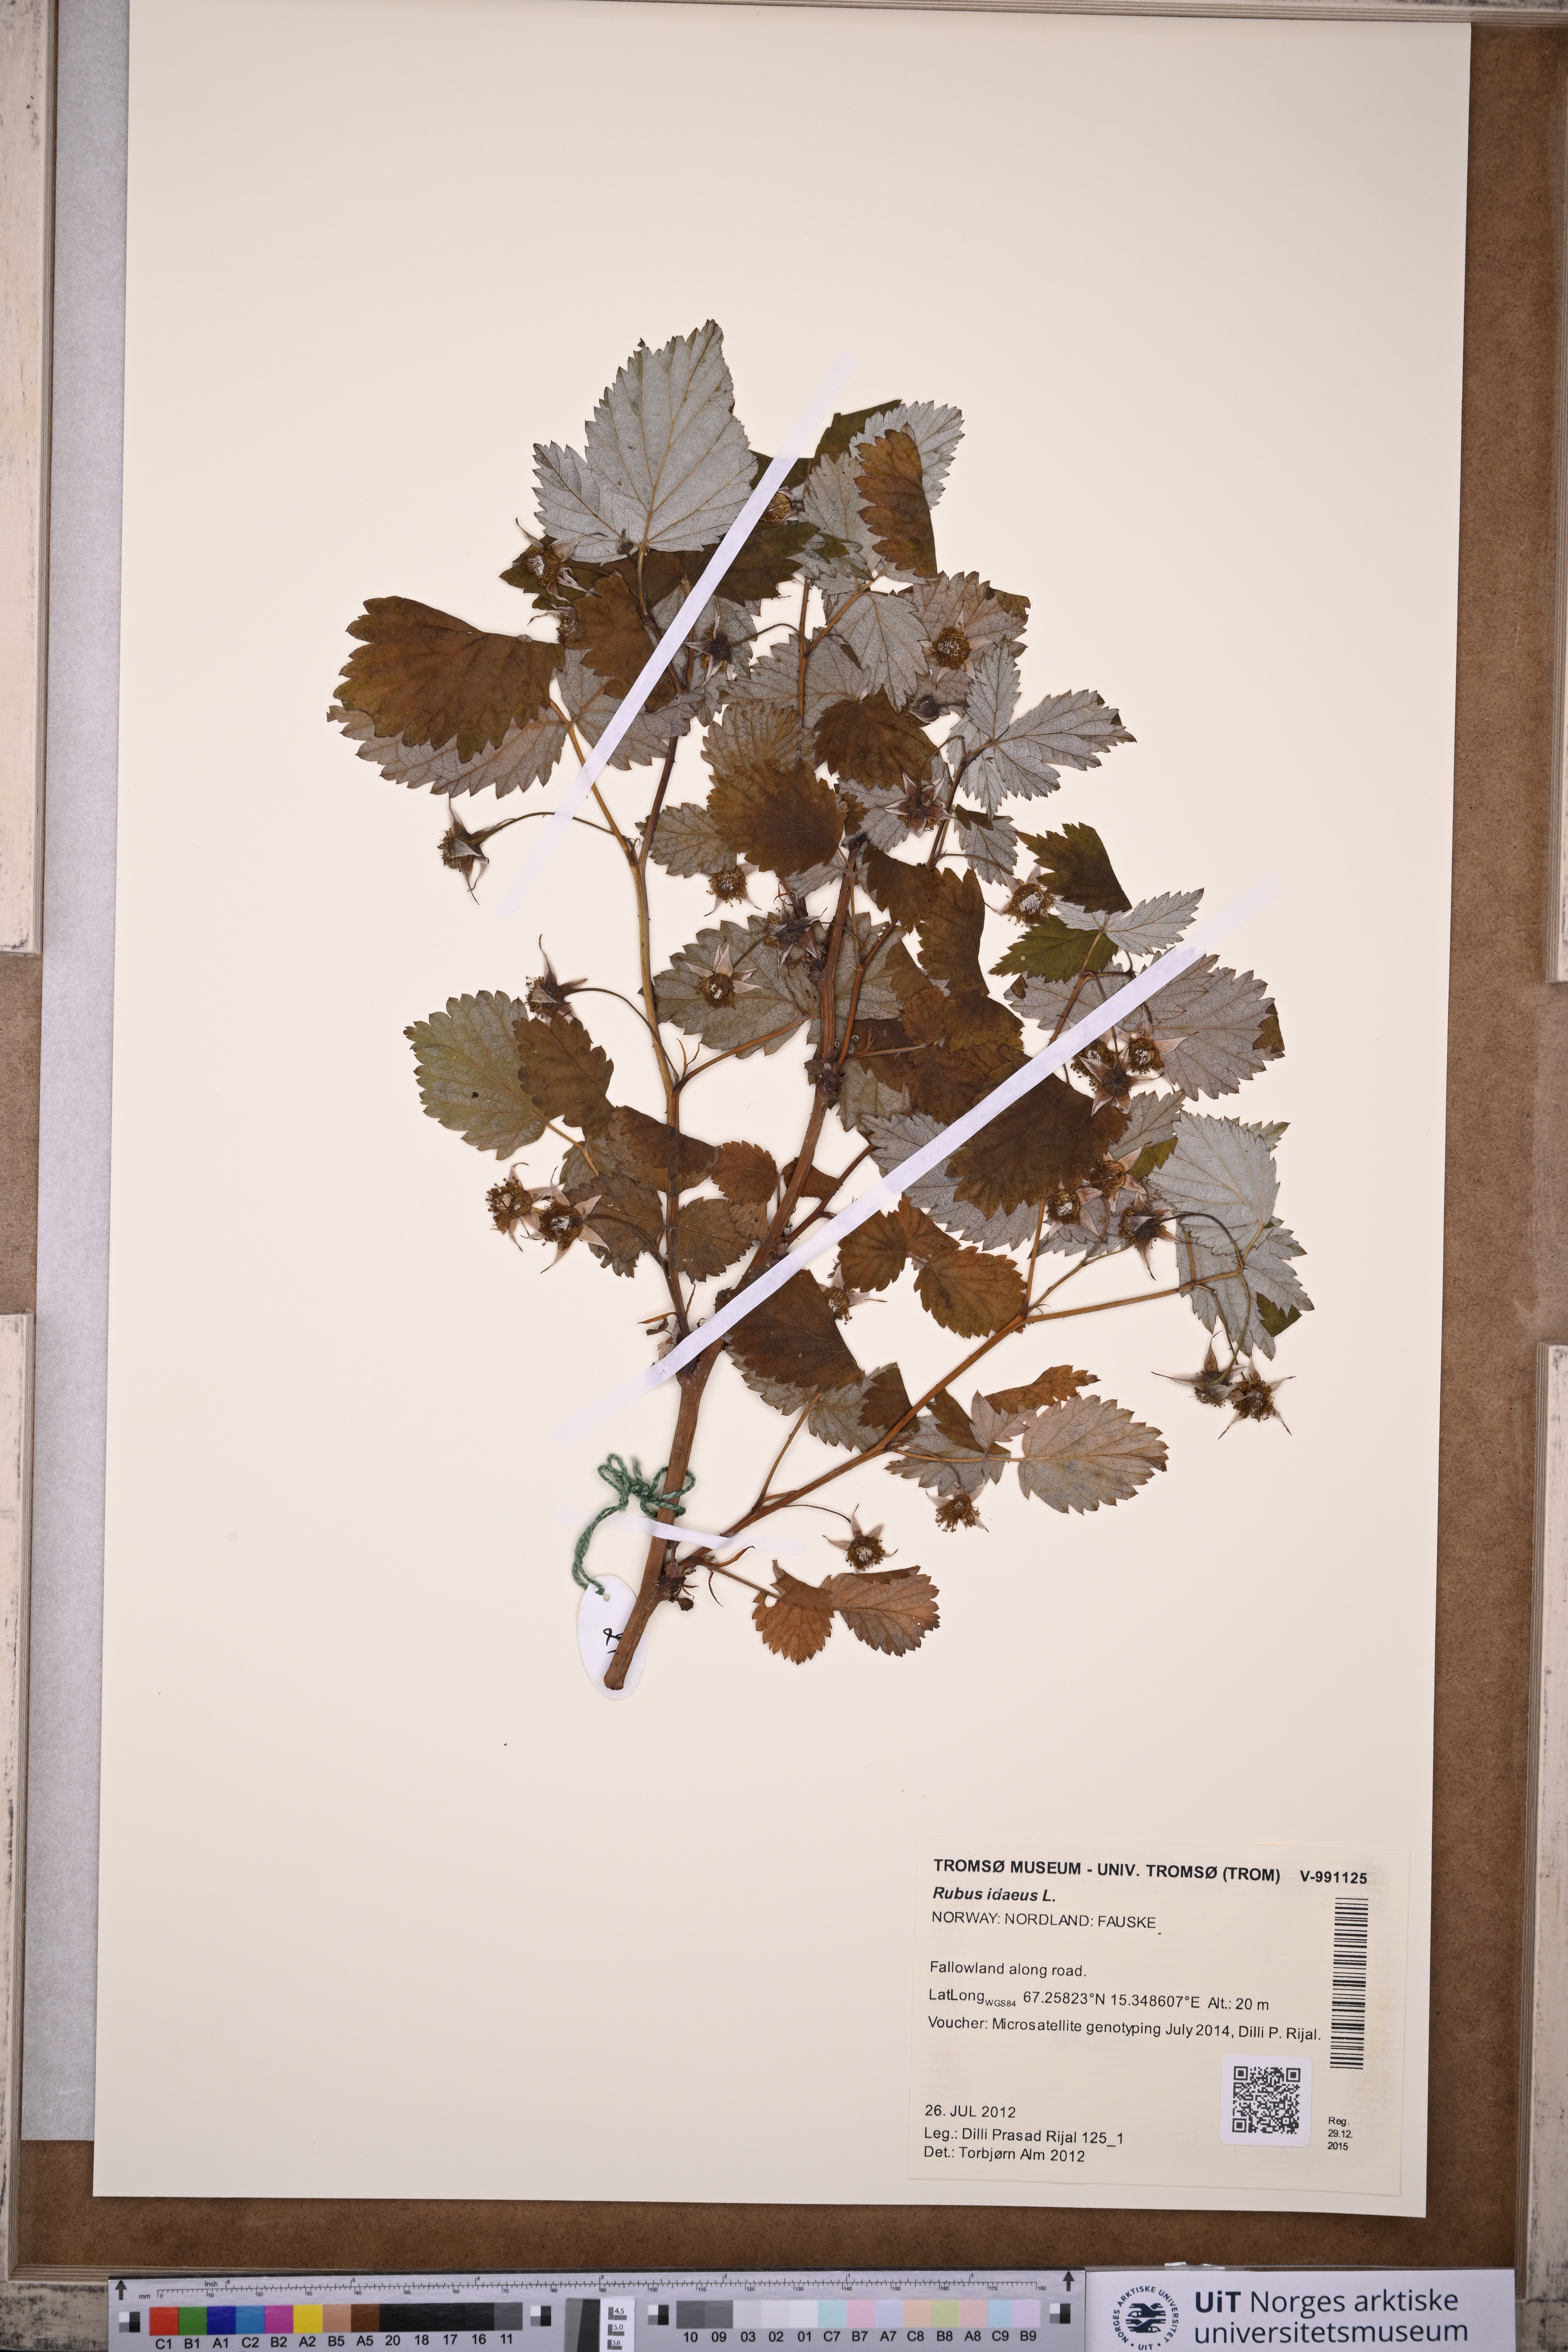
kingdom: Plantae
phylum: Tracheophyta
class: Magnoliopsida
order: Rosales
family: Rosaceae
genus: Rubus
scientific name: Rubus idaeus
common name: Raspberry
